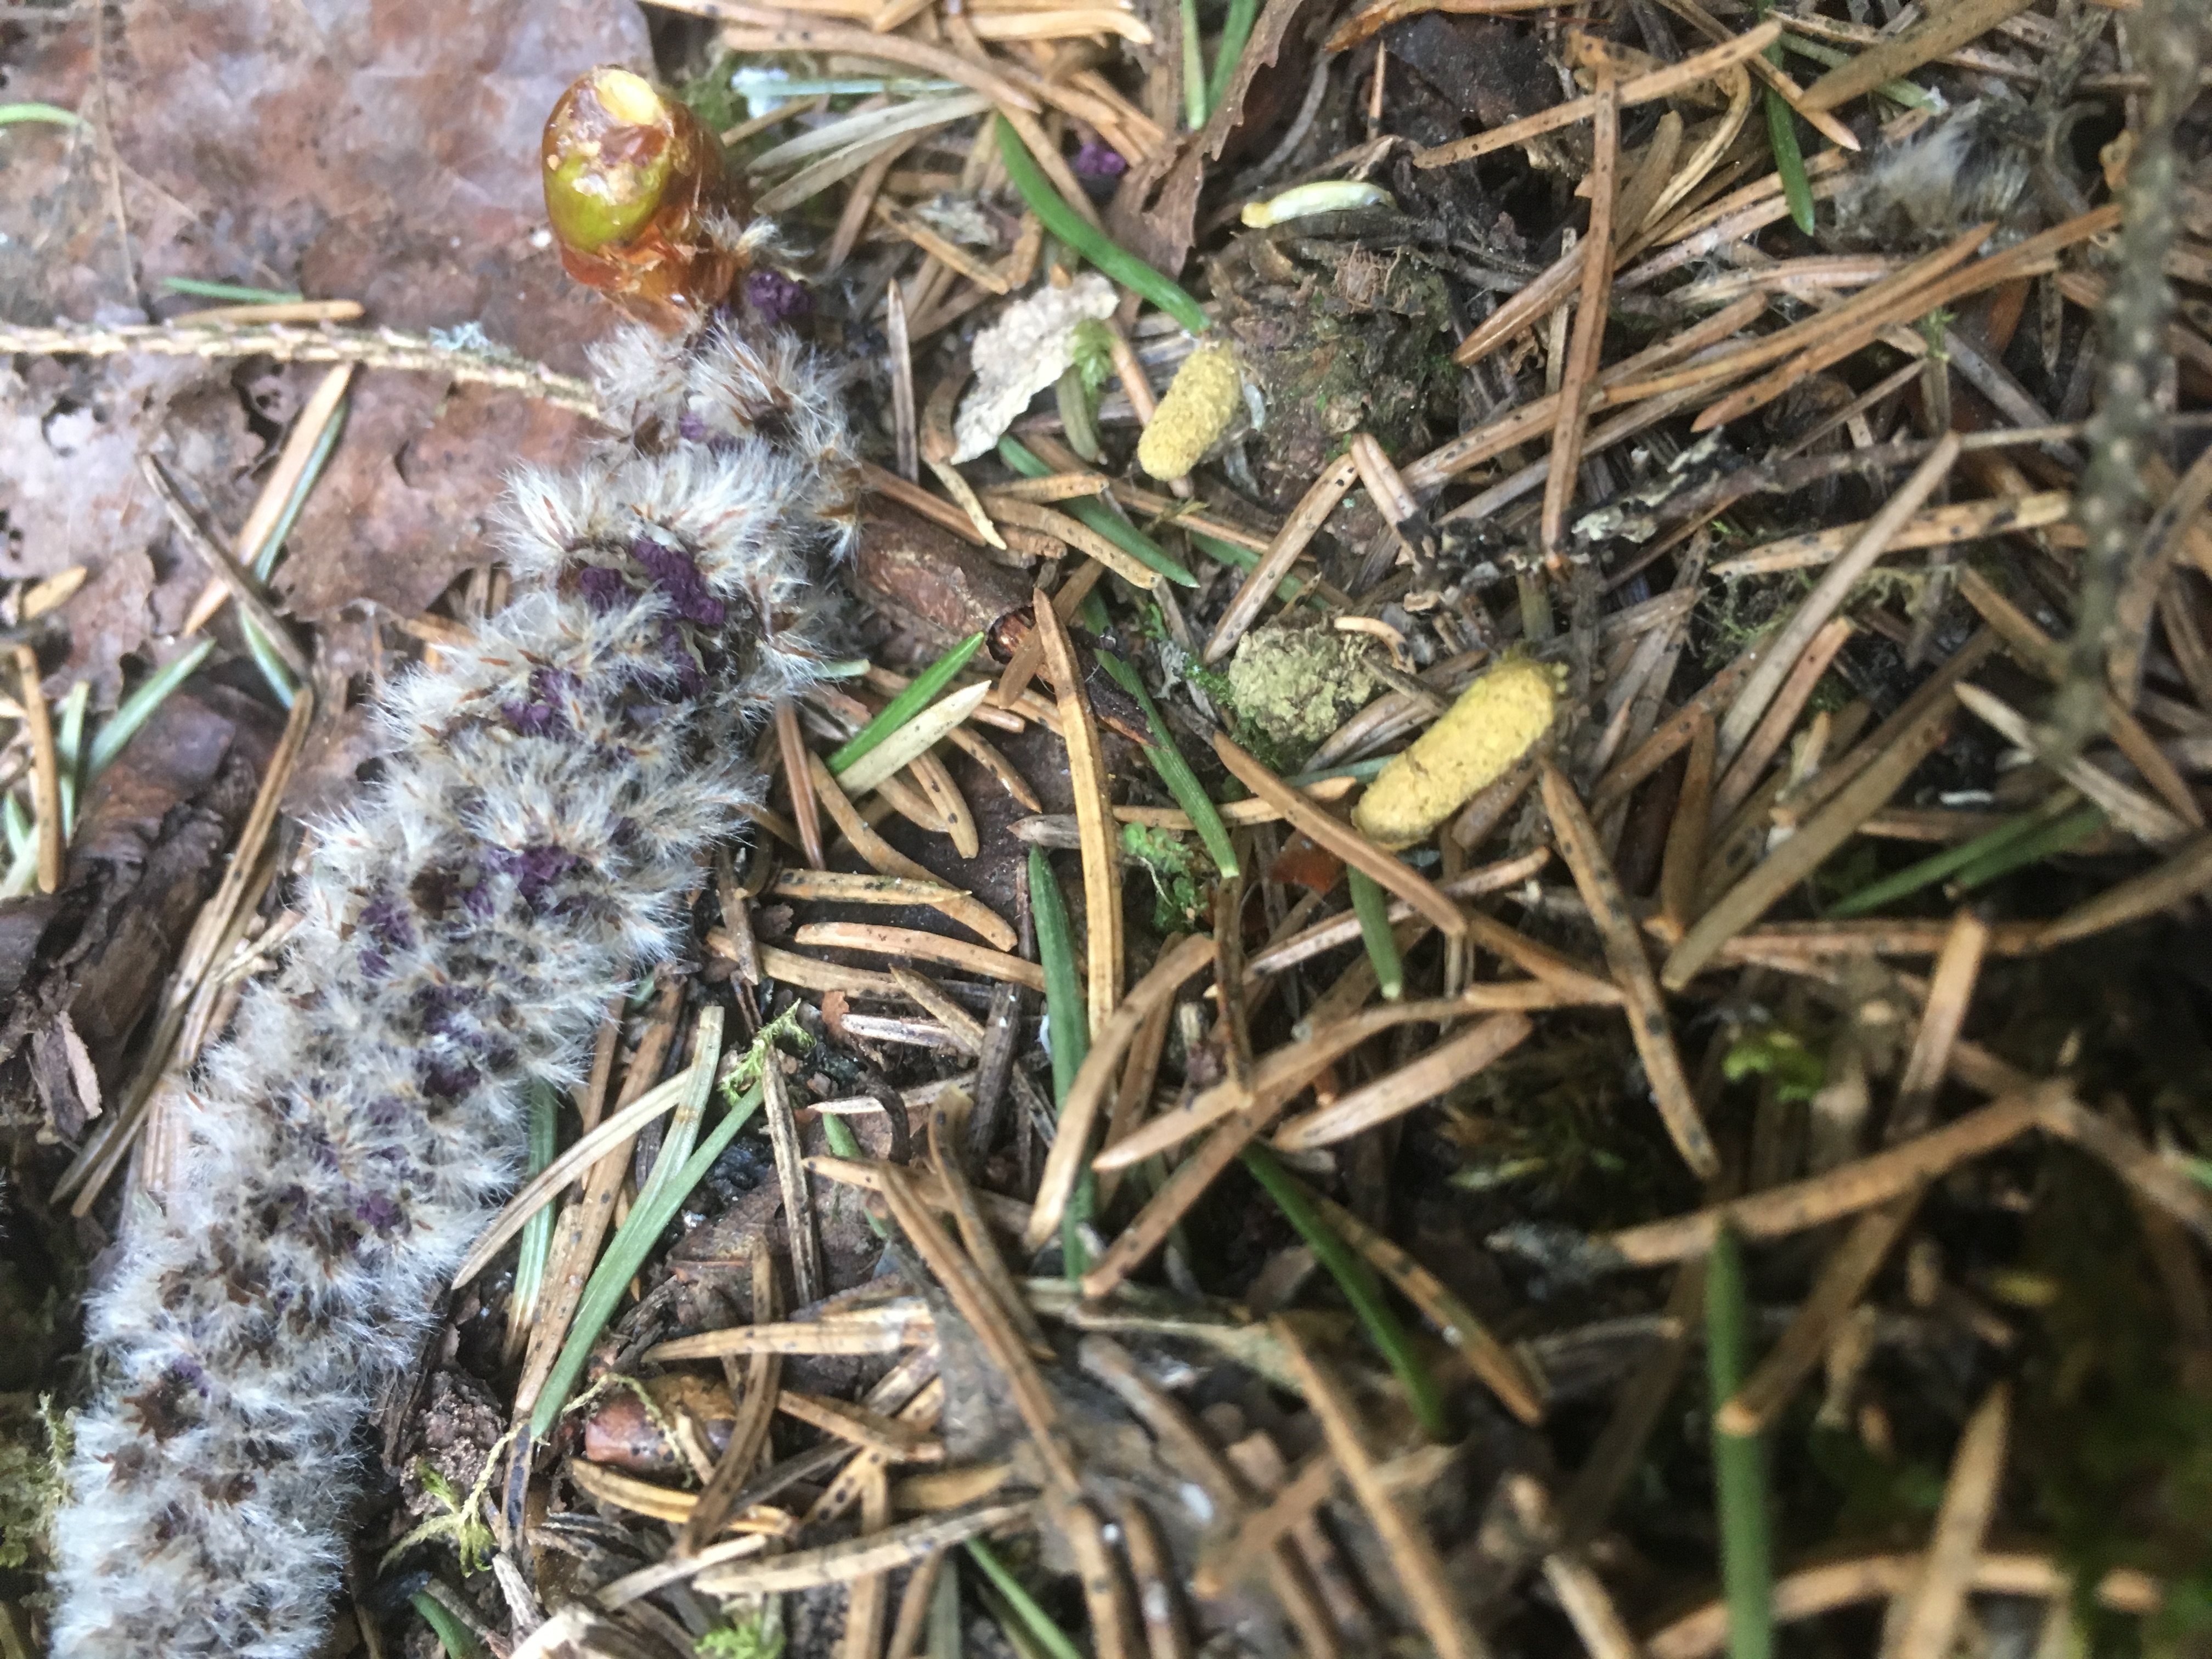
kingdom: Animalia
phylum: Chordata
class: Mammalia
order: Rodentia
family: Sciuridae
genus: Pteromys
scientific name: Pteromys volans
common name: Siberian flying squirrel
